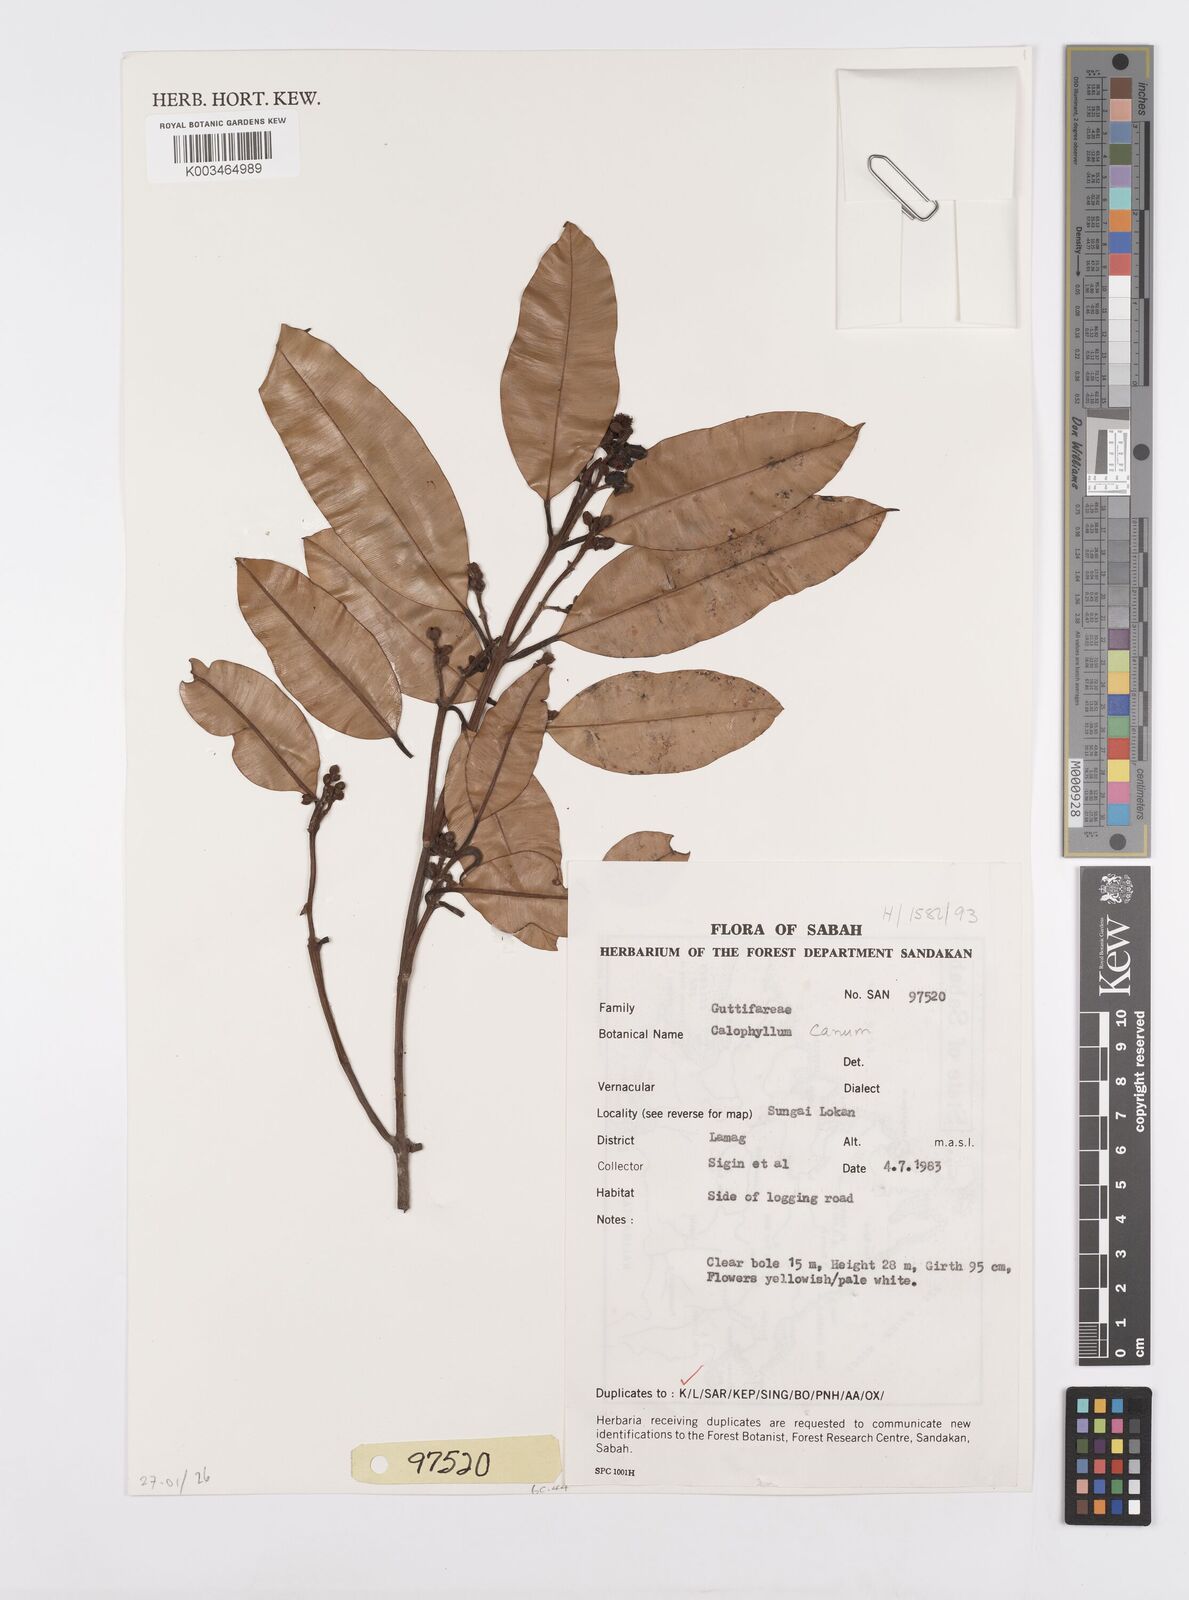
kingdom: Plantae
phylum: Tracheophyta
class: Magnoliopsida
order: Malpighiales
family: Calophyllaceae
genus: Calophyllum
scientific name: Calophyllum canum
